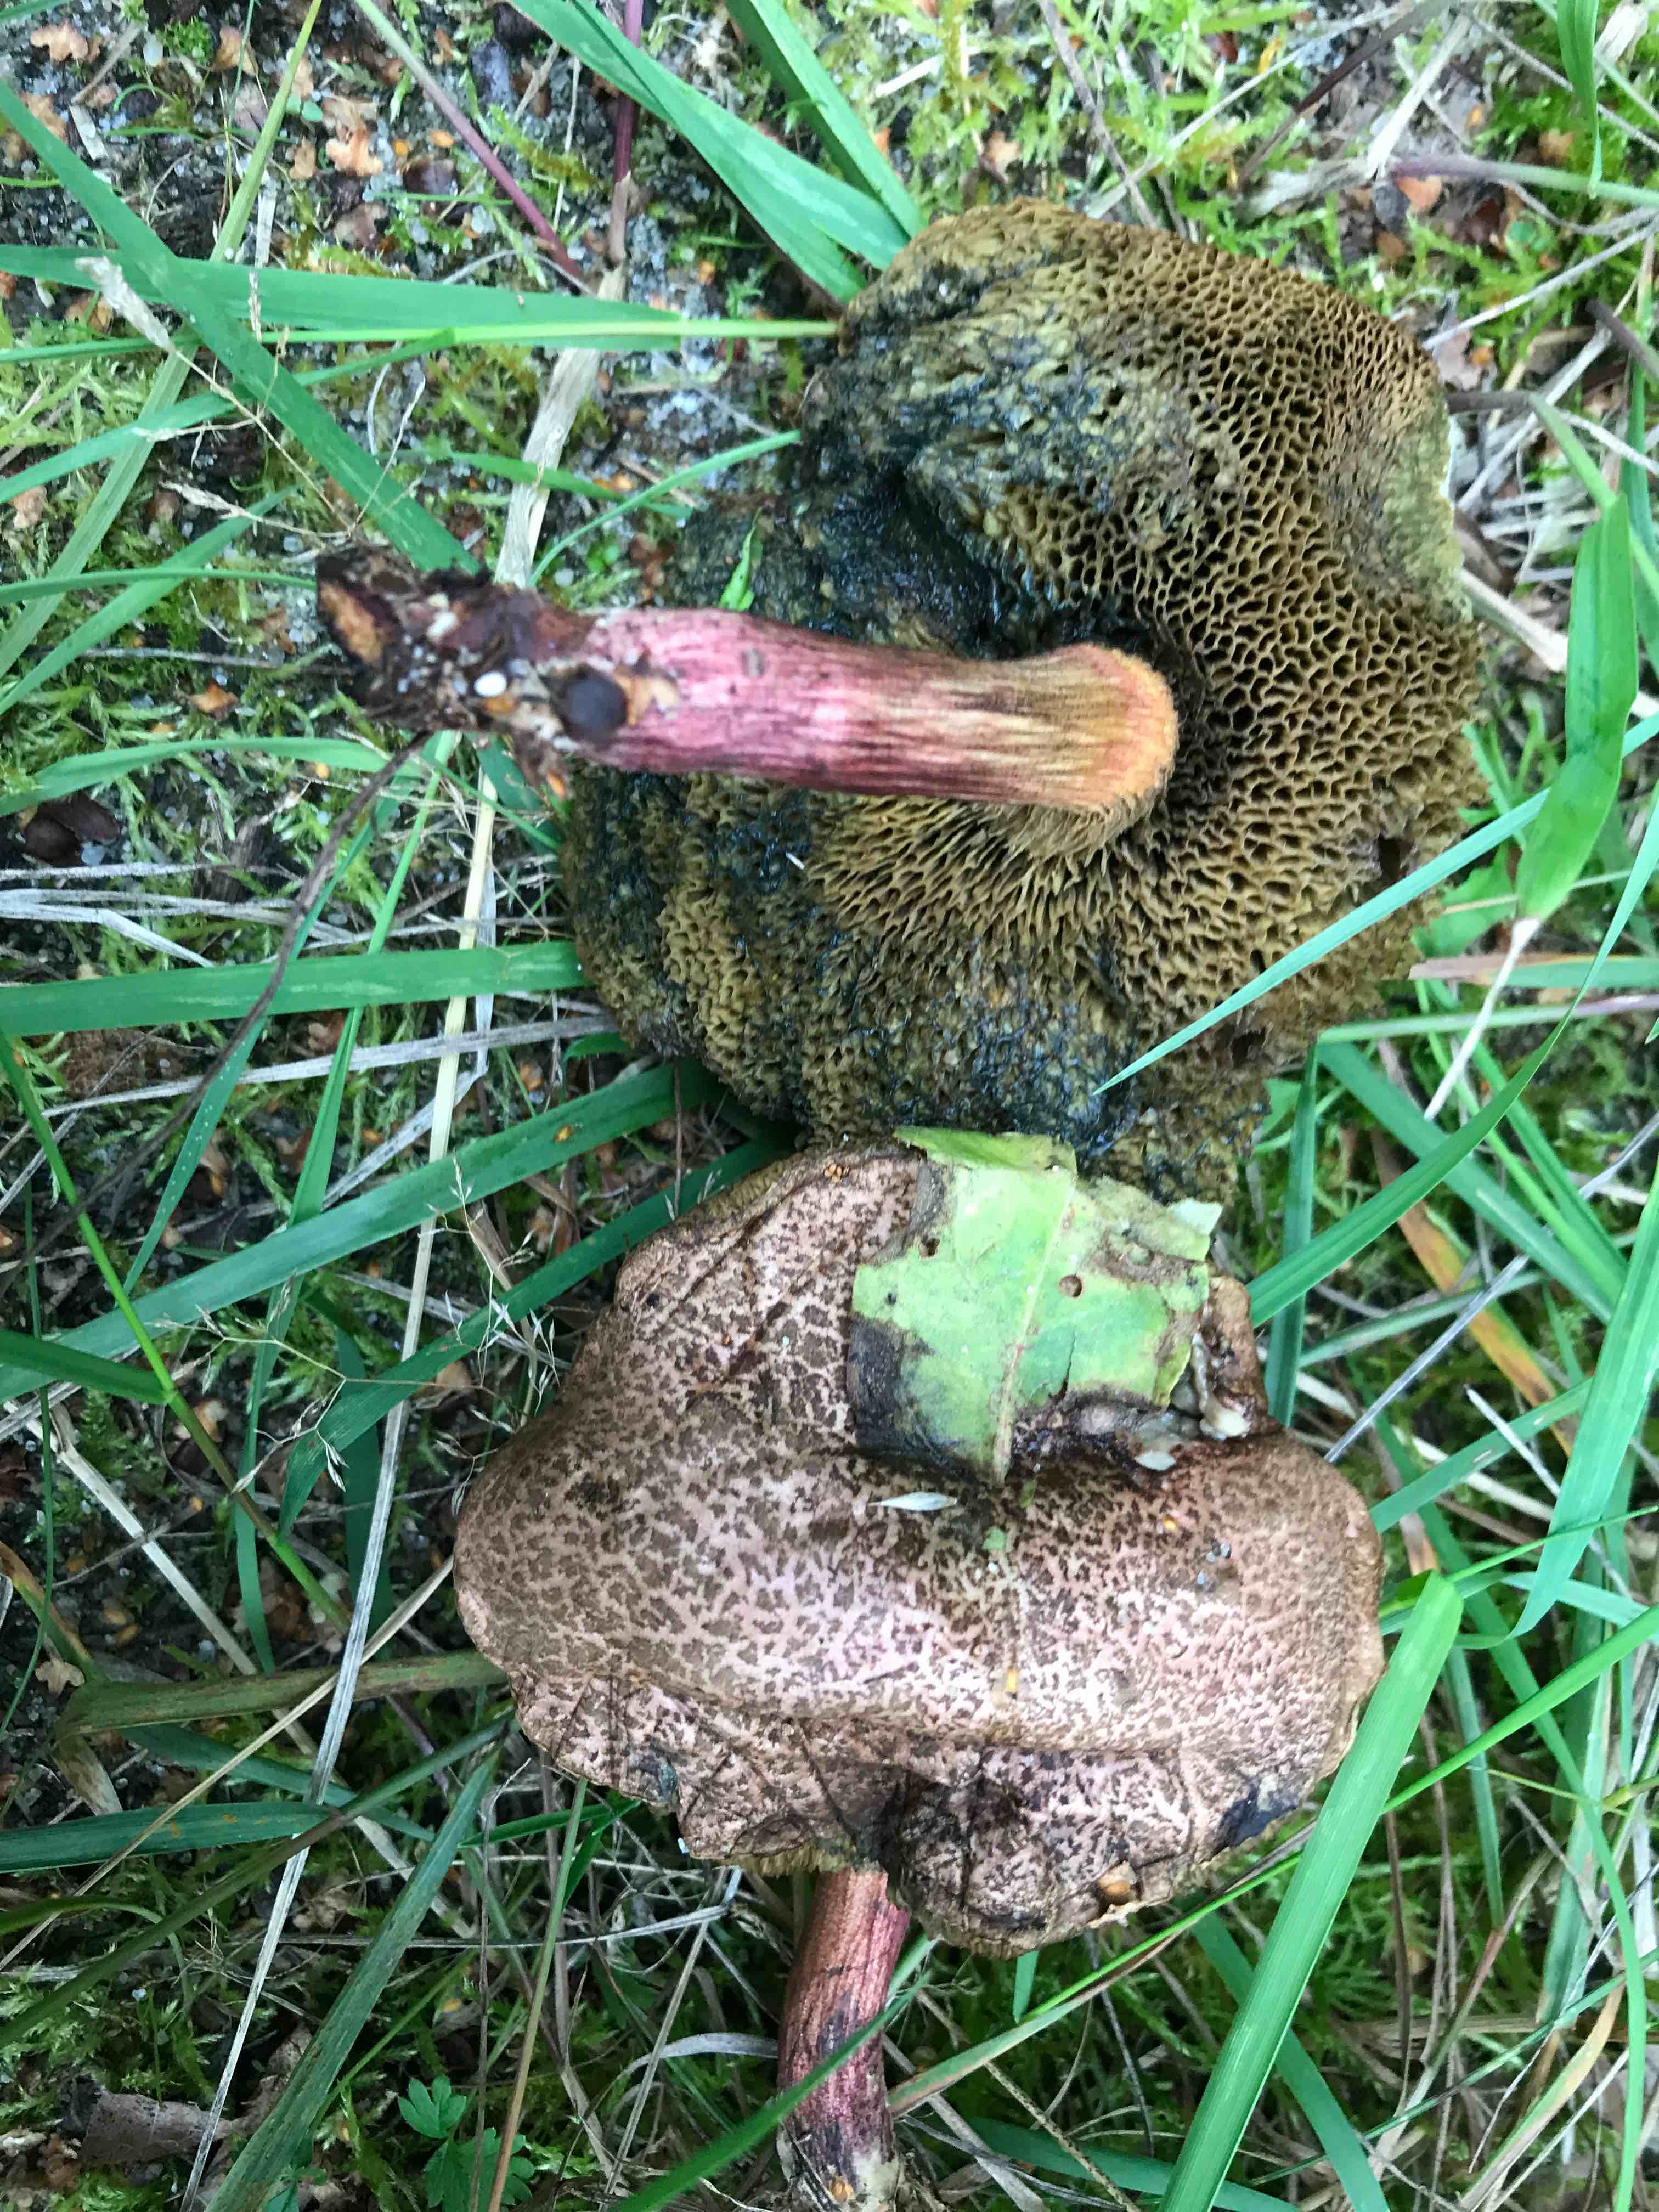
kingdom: Fungi
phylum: Basidiomycota
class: Agaricomycetes
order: Boletales
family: Boletaceae
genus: Xerocomellus
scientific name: Xerocomellus
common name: dværgrørhat
